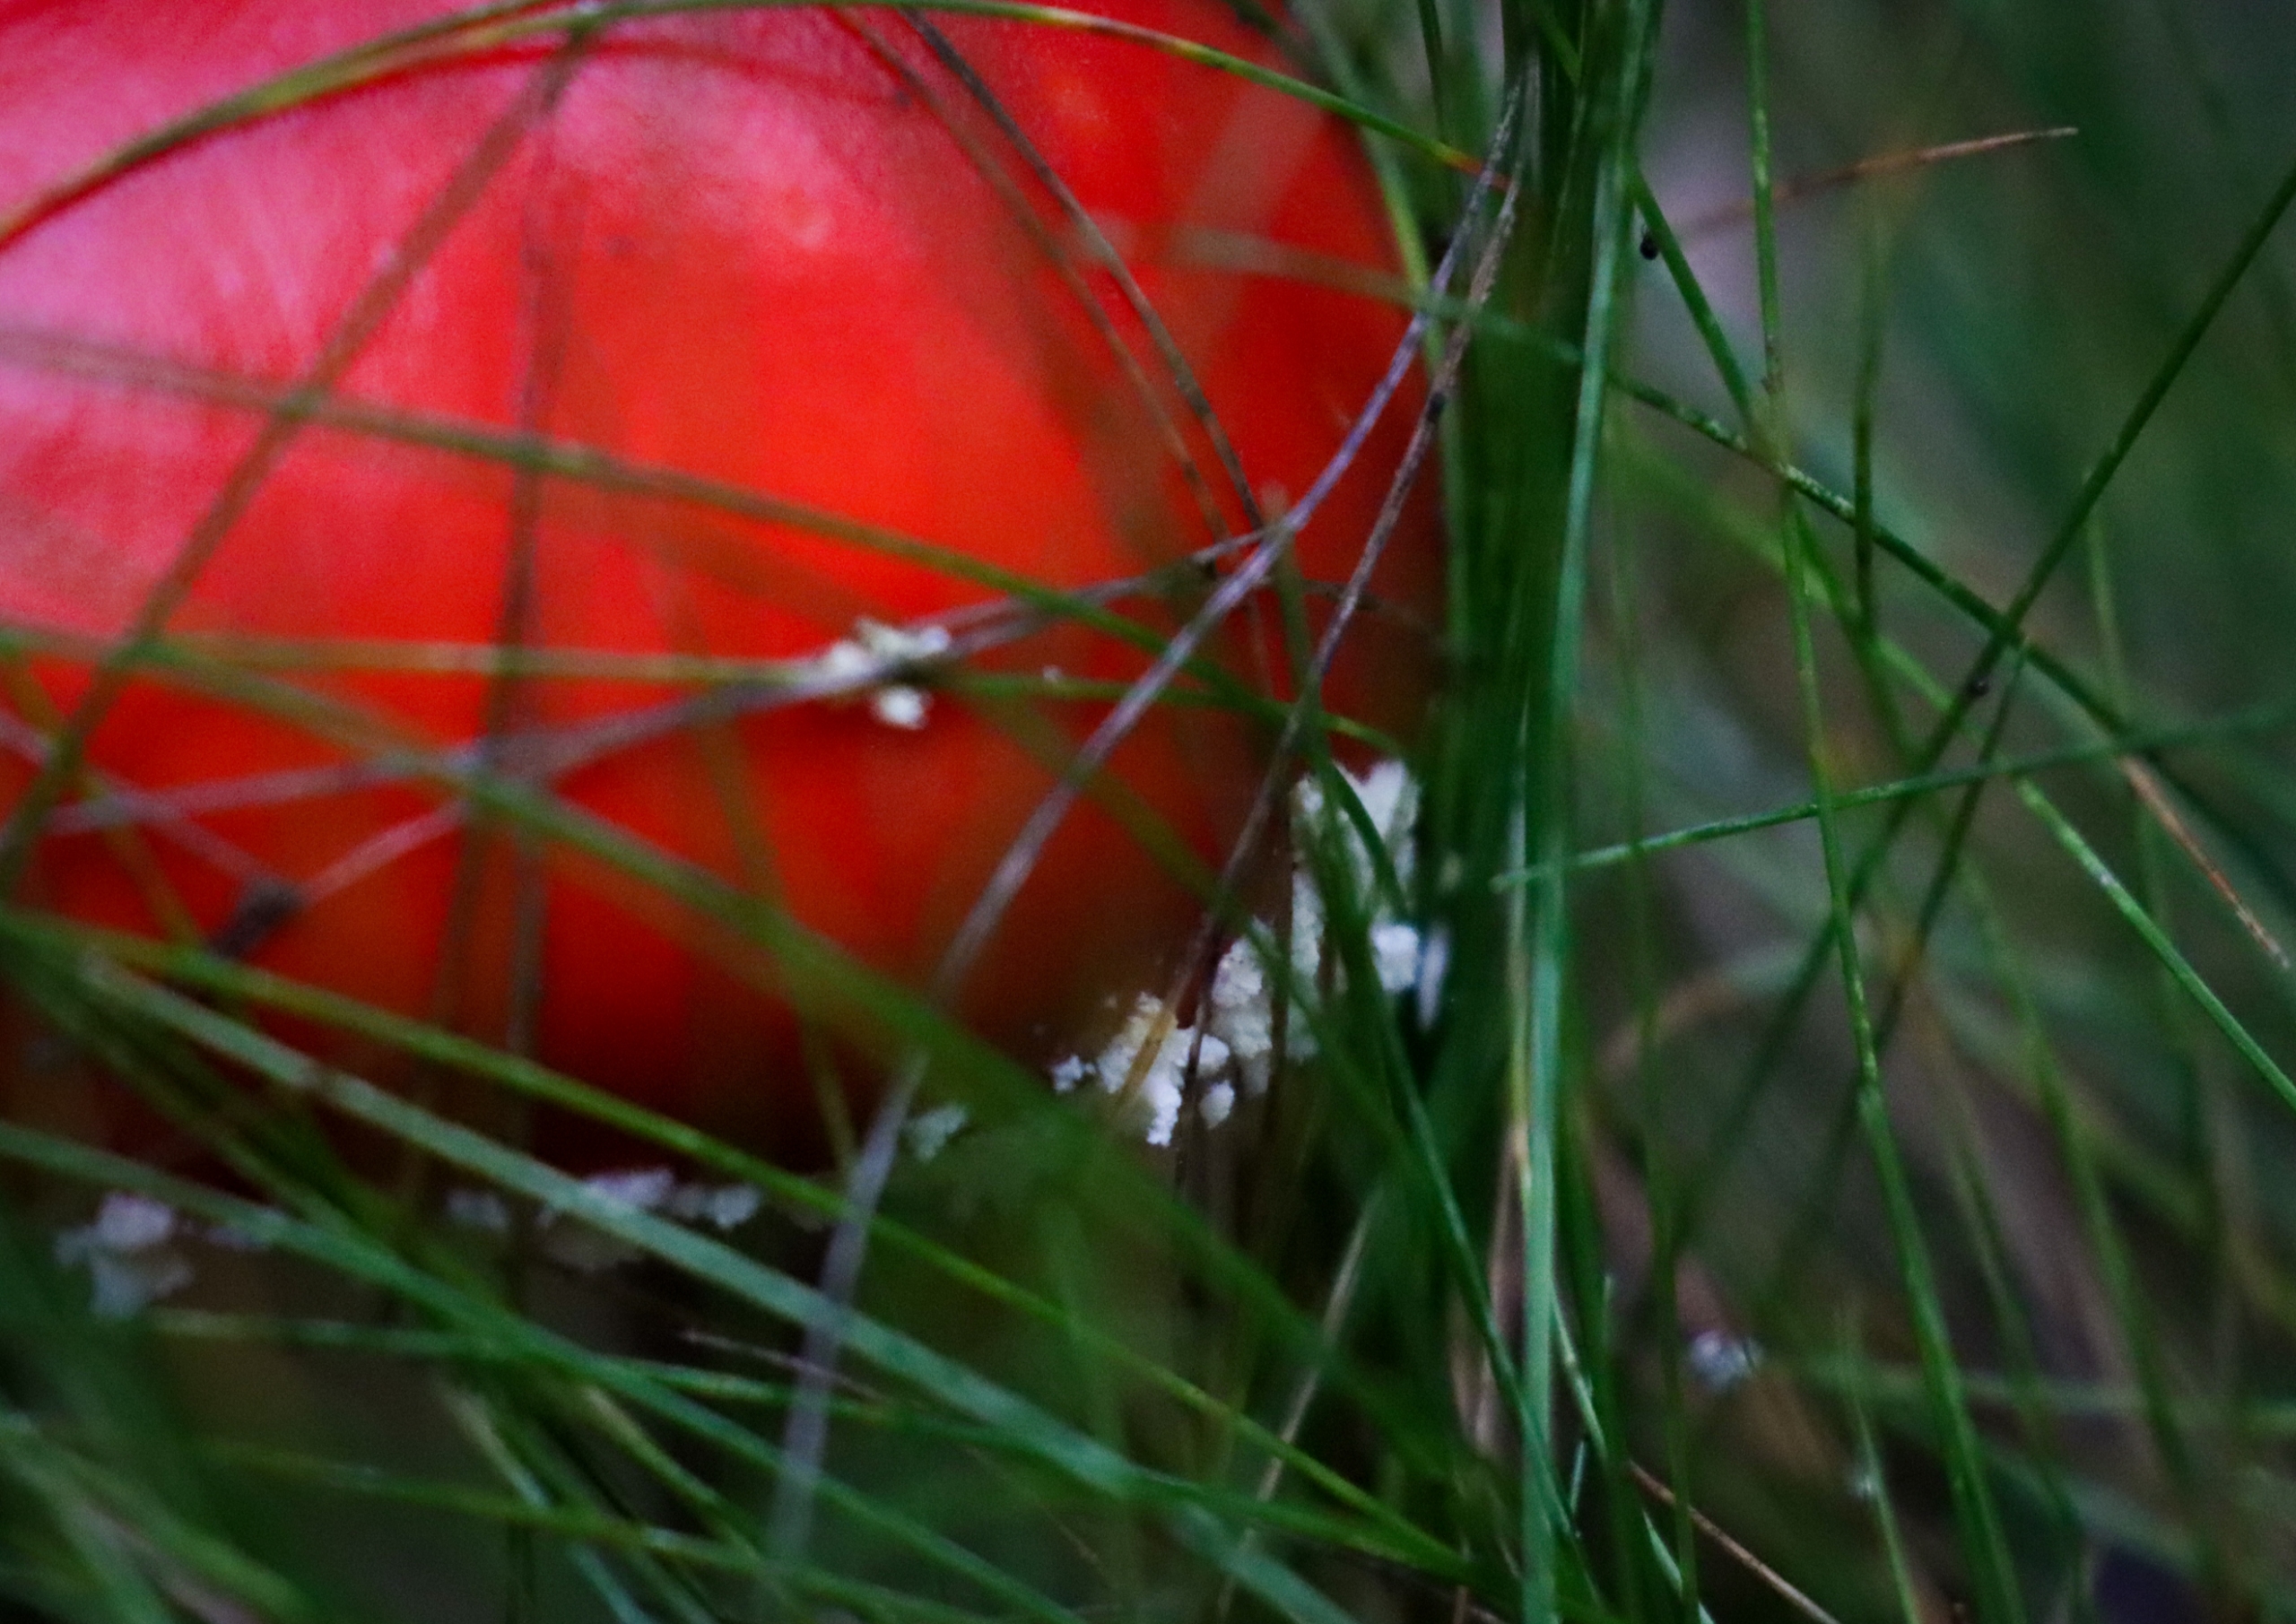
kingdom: Fungi
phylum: Basidiomycota
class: Agaricomycetes
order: Agaricales
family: Amanitaceae
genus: Amanita
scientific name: Amanita muscaria
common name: Rød fluesvamp
